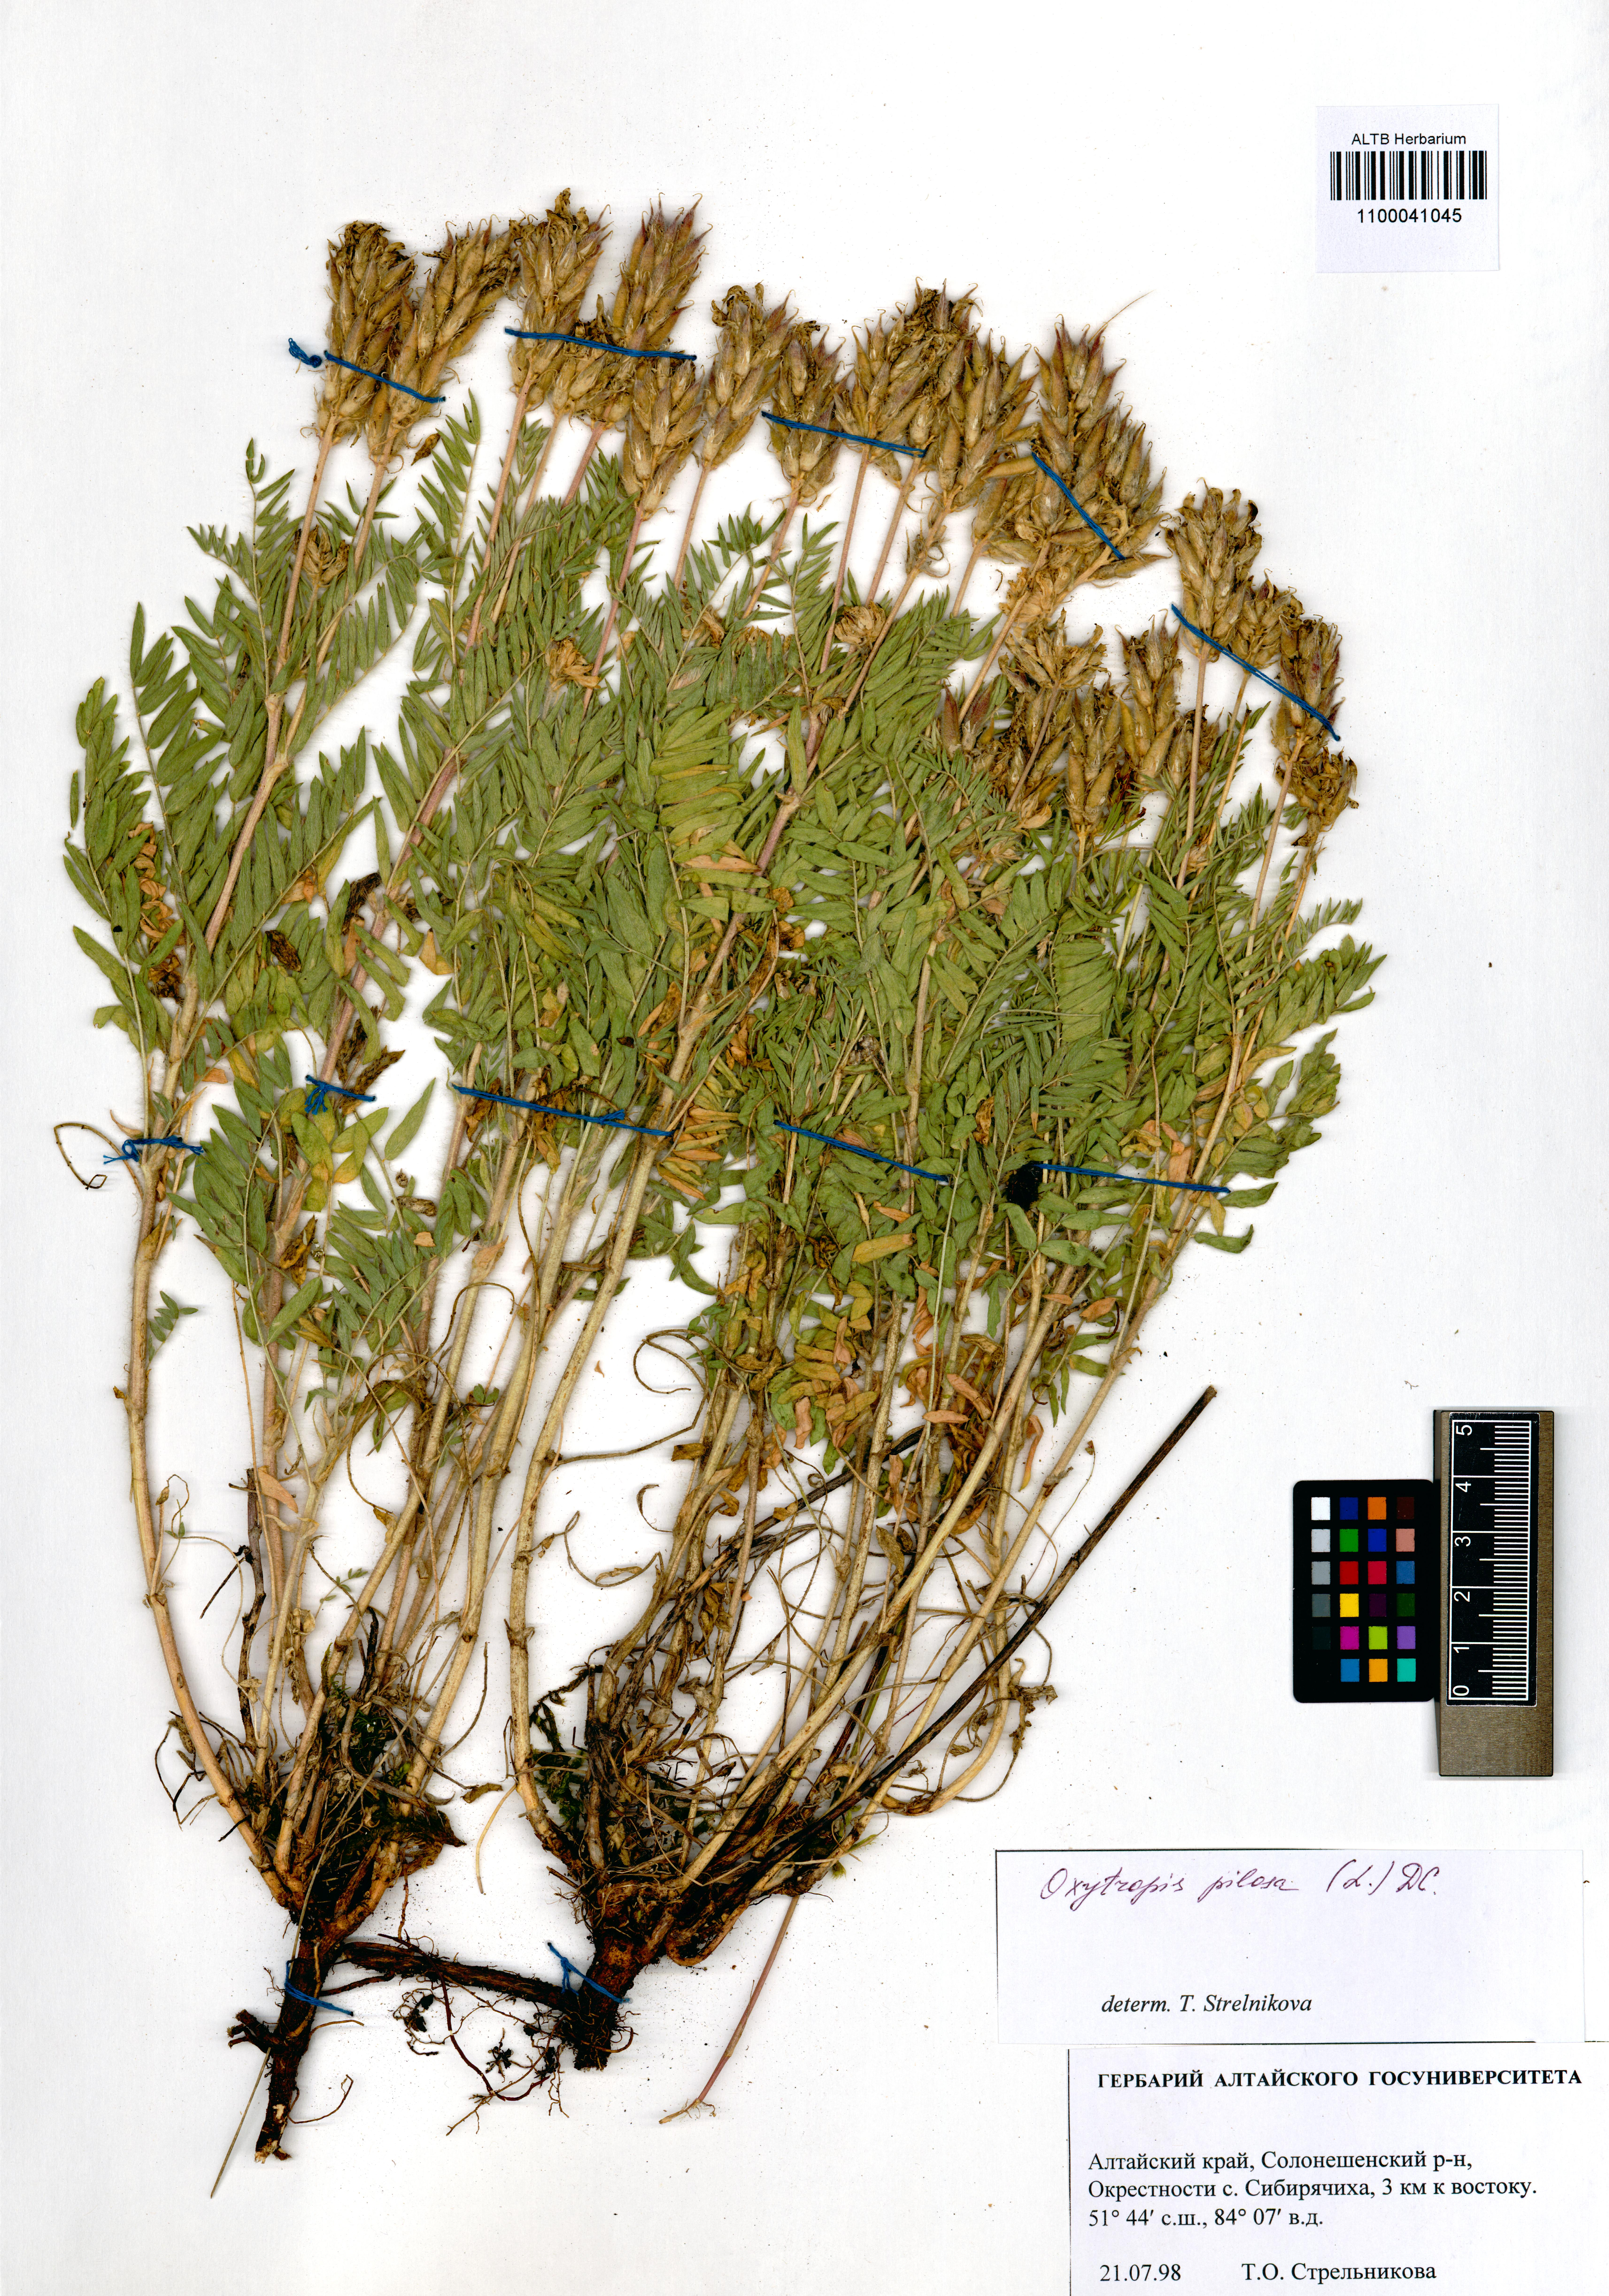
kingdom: Plantae
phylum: Tracheophyta
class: Magnoliopsida
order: Fabales
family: Fabaceae
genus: Oxytropis
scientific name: Oxytropis pilosa
